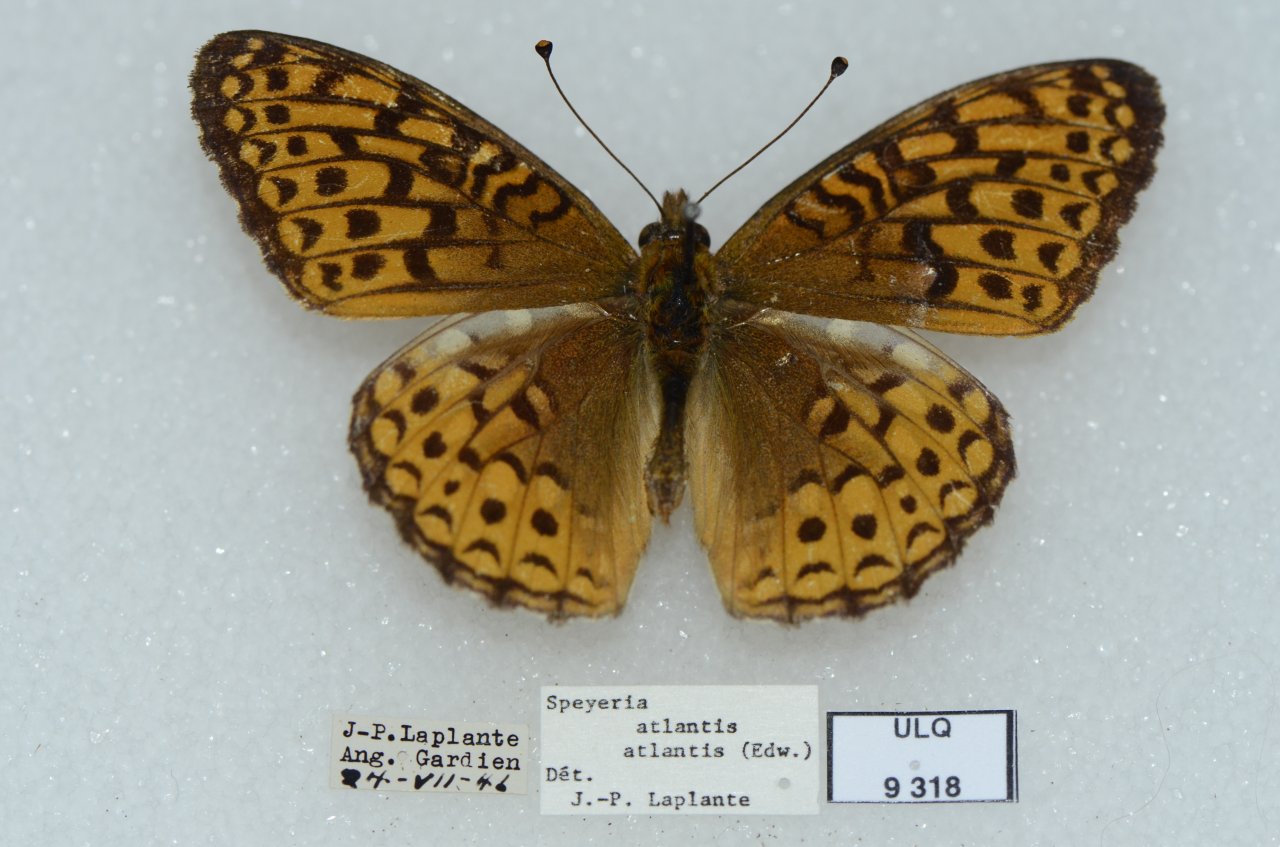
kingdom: Animalia
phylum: Arthropoda
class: Insecta
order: Lepidoptera
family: Nymphalidae
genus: Speyeria
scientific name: Speyeria atlantis
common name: Atlantis Fritillary
